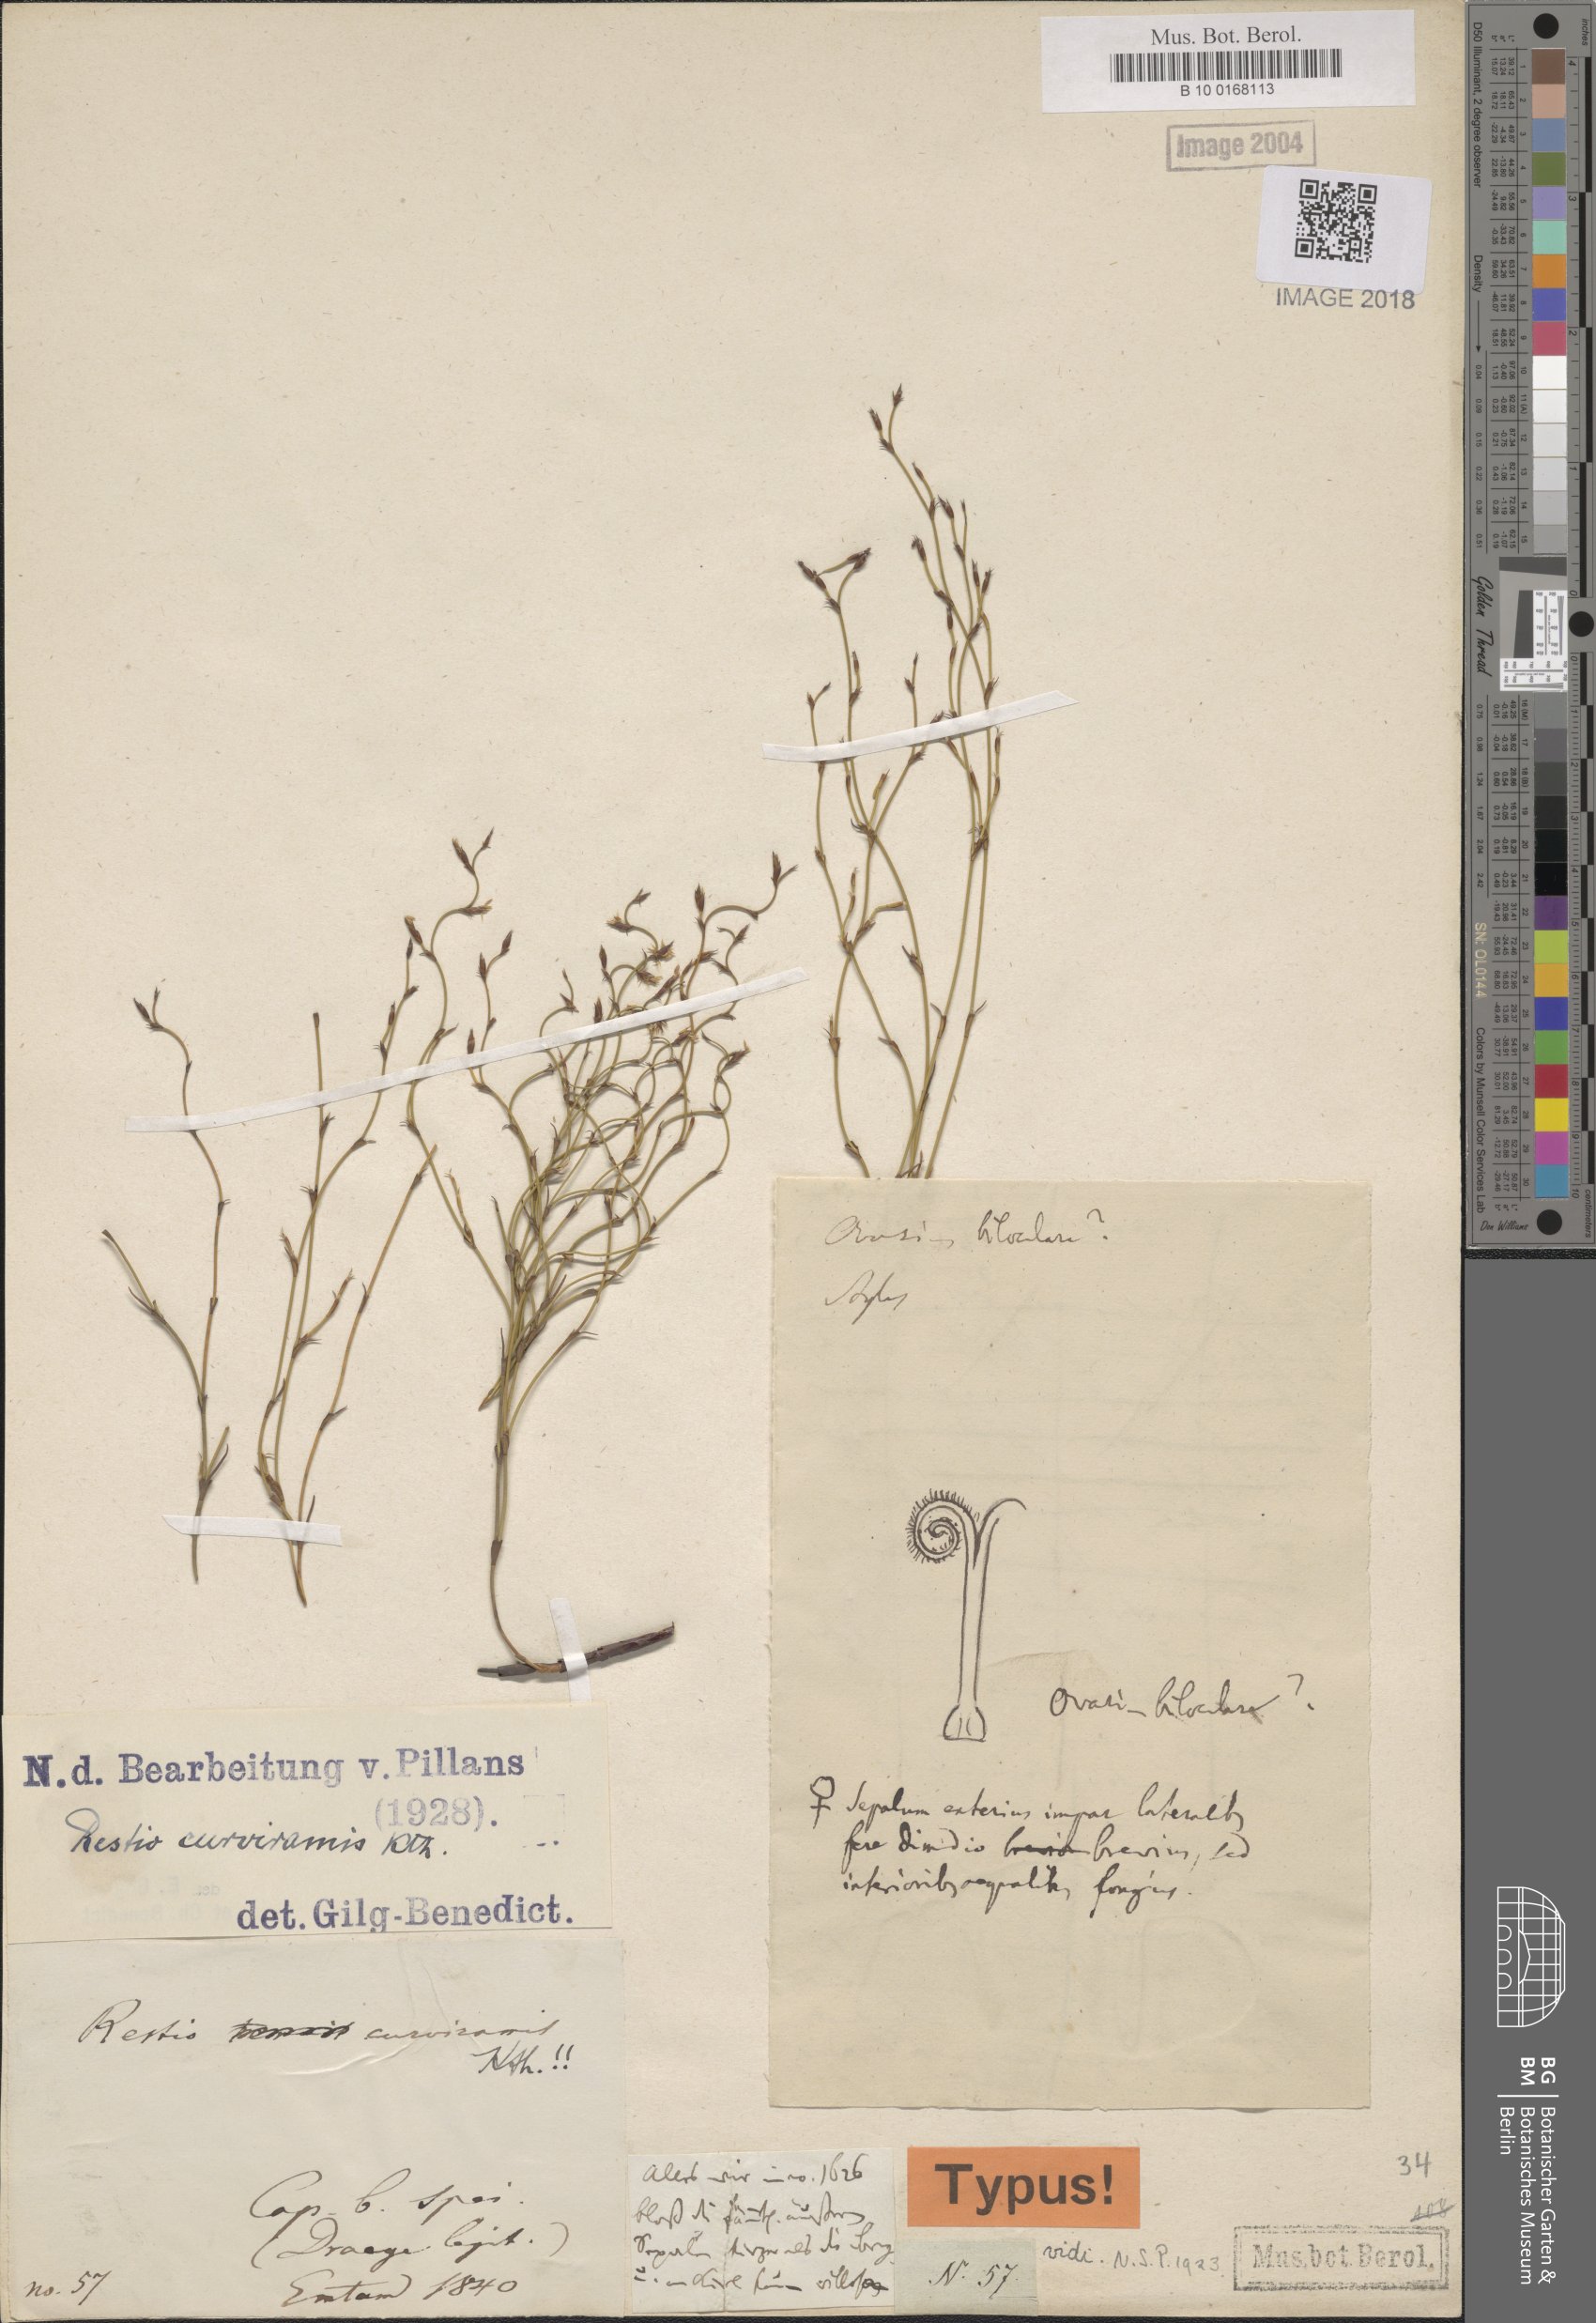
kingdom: Plantae
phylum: Tracheophyta
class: Liliopsida
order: Poales
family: Restionaceae
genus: Restio
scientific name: Restio curviramis
